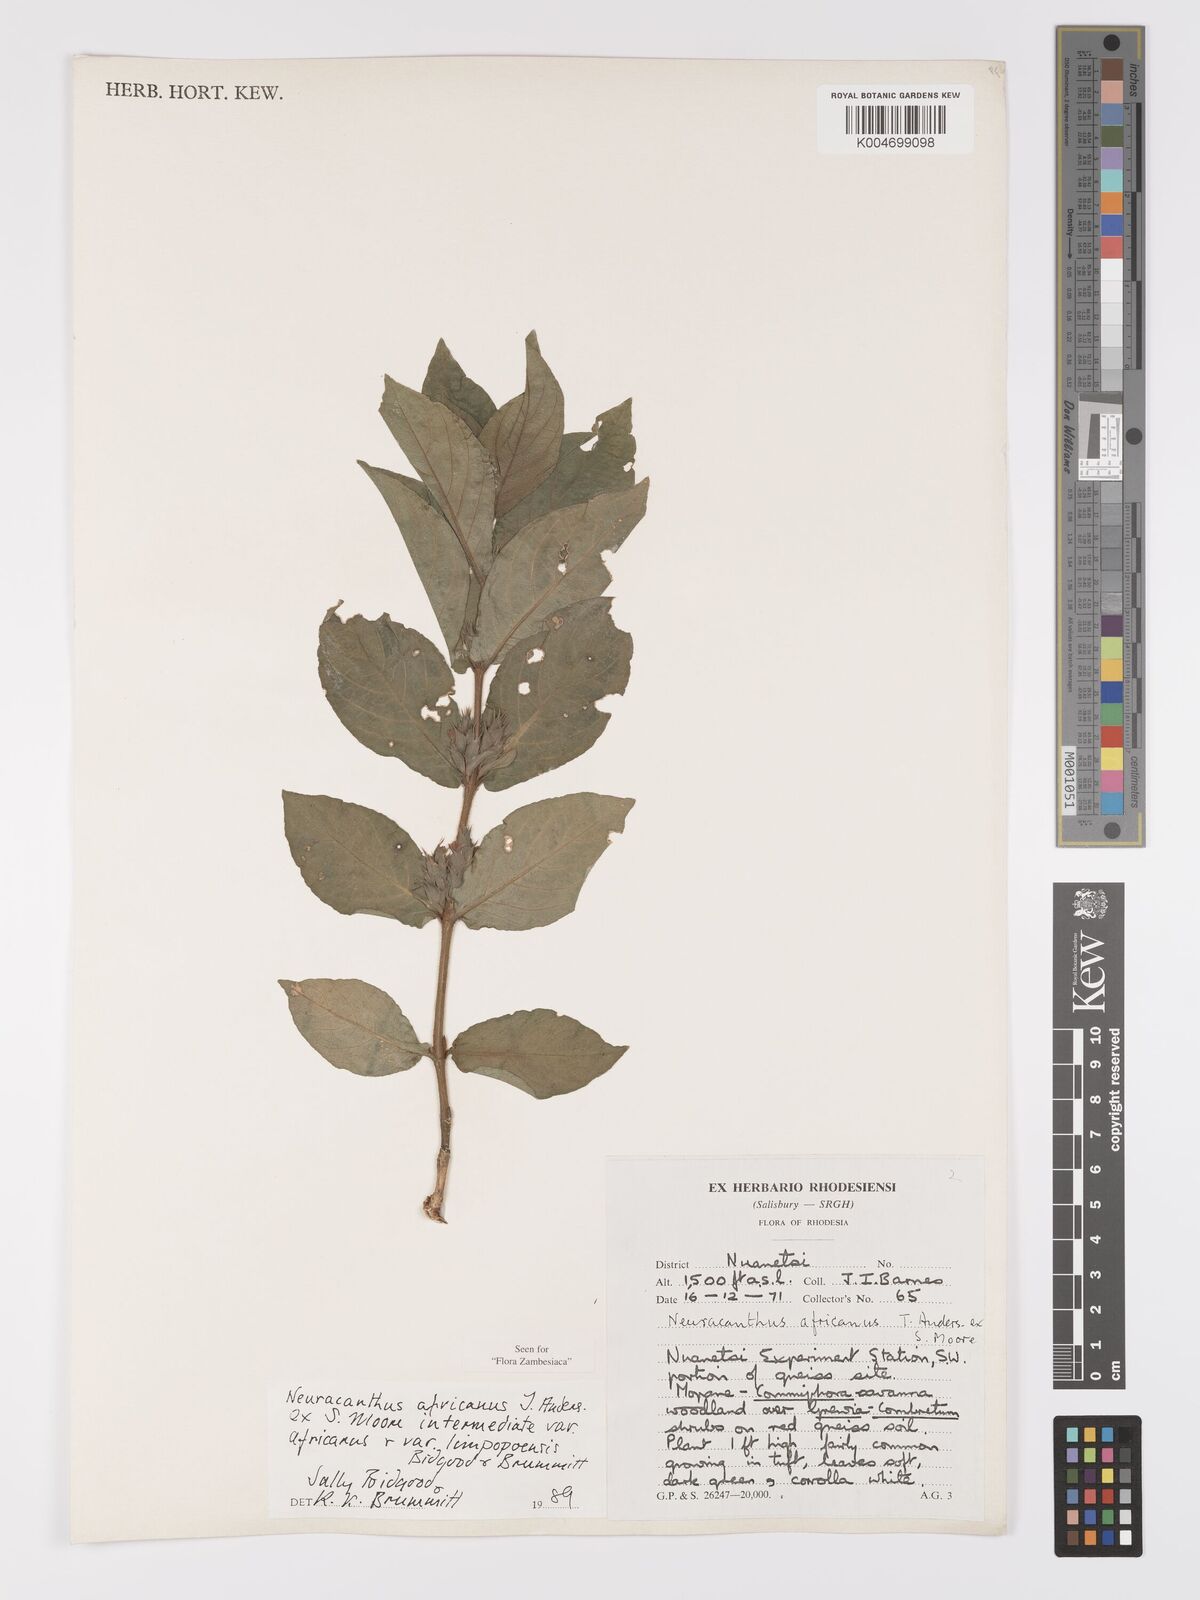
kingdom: Plantae
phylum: Tracheophyta
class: Magnoliopsida
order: Lamiales
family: Acanthaceae
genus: Neuracanthus
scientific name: Neuracanthus africanus
